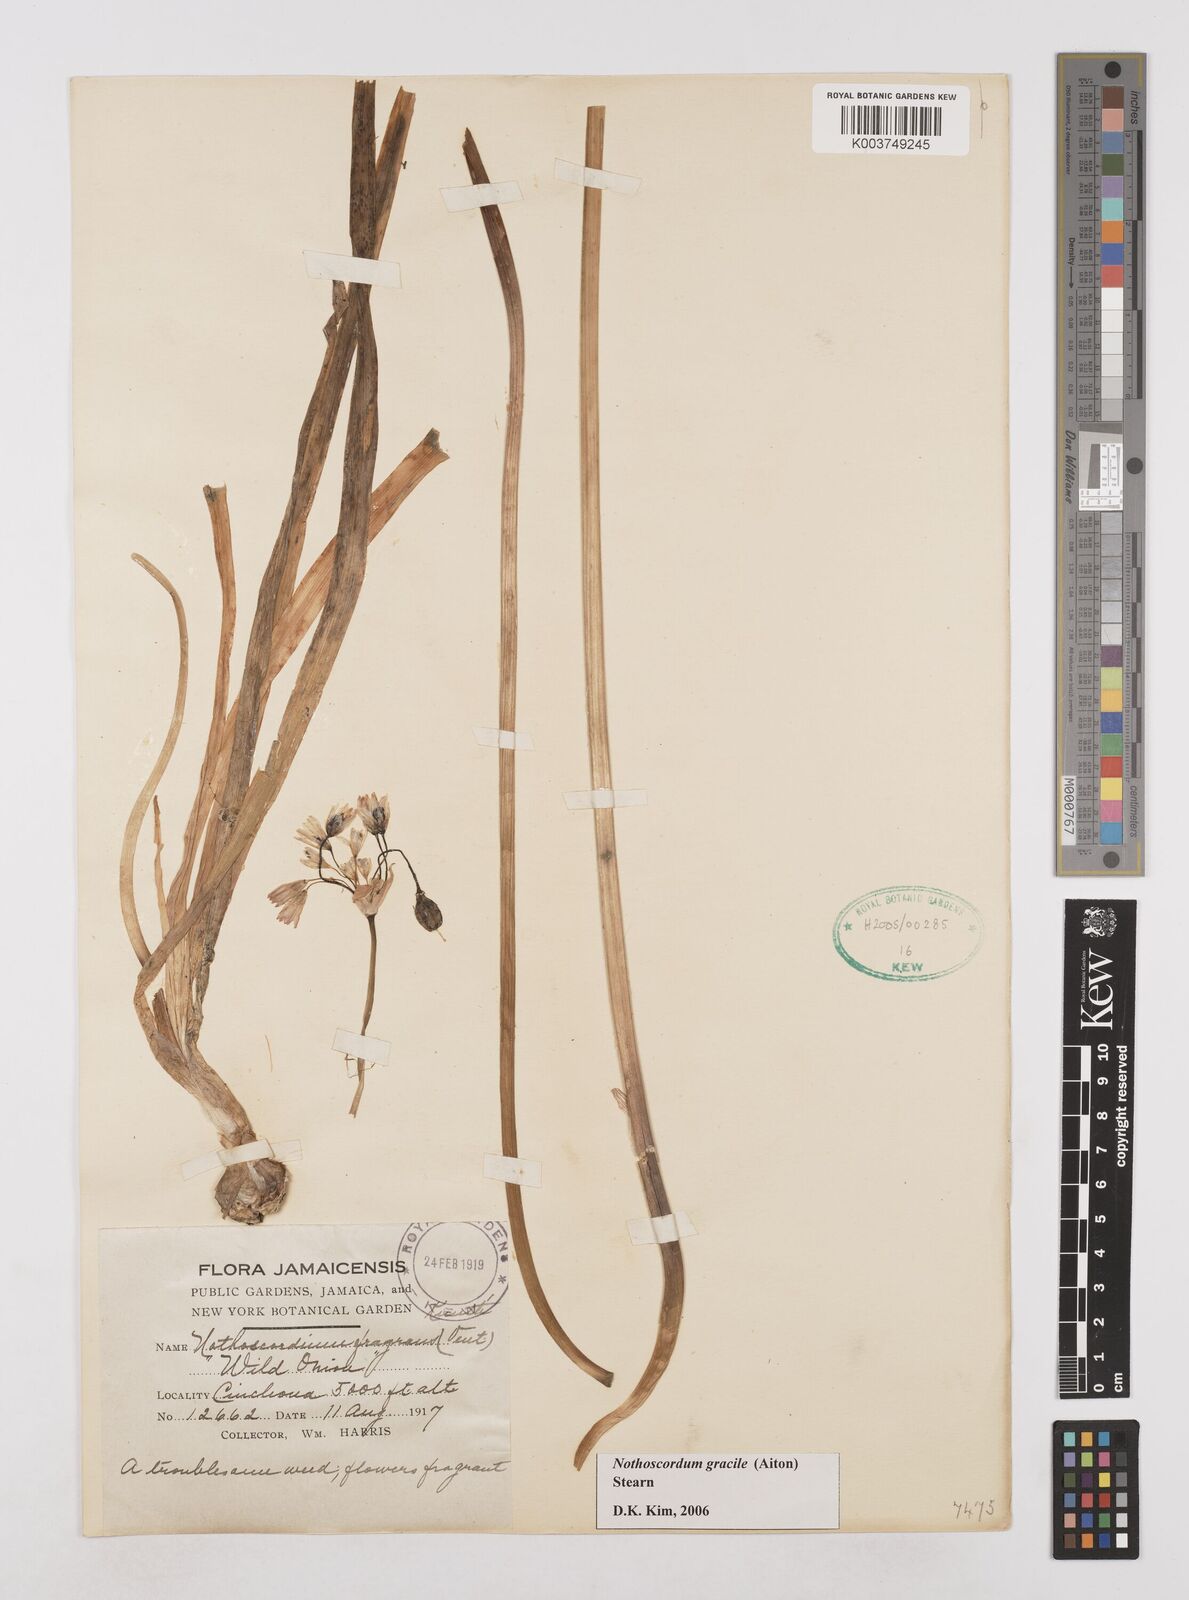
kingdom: Plantae
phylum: Tracheophyta
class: Liliopsida
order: Asparagales
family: Amaryllidaceae
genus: Nothoscordum
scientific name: Nothoscordum gracile
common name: Slender false garlic
